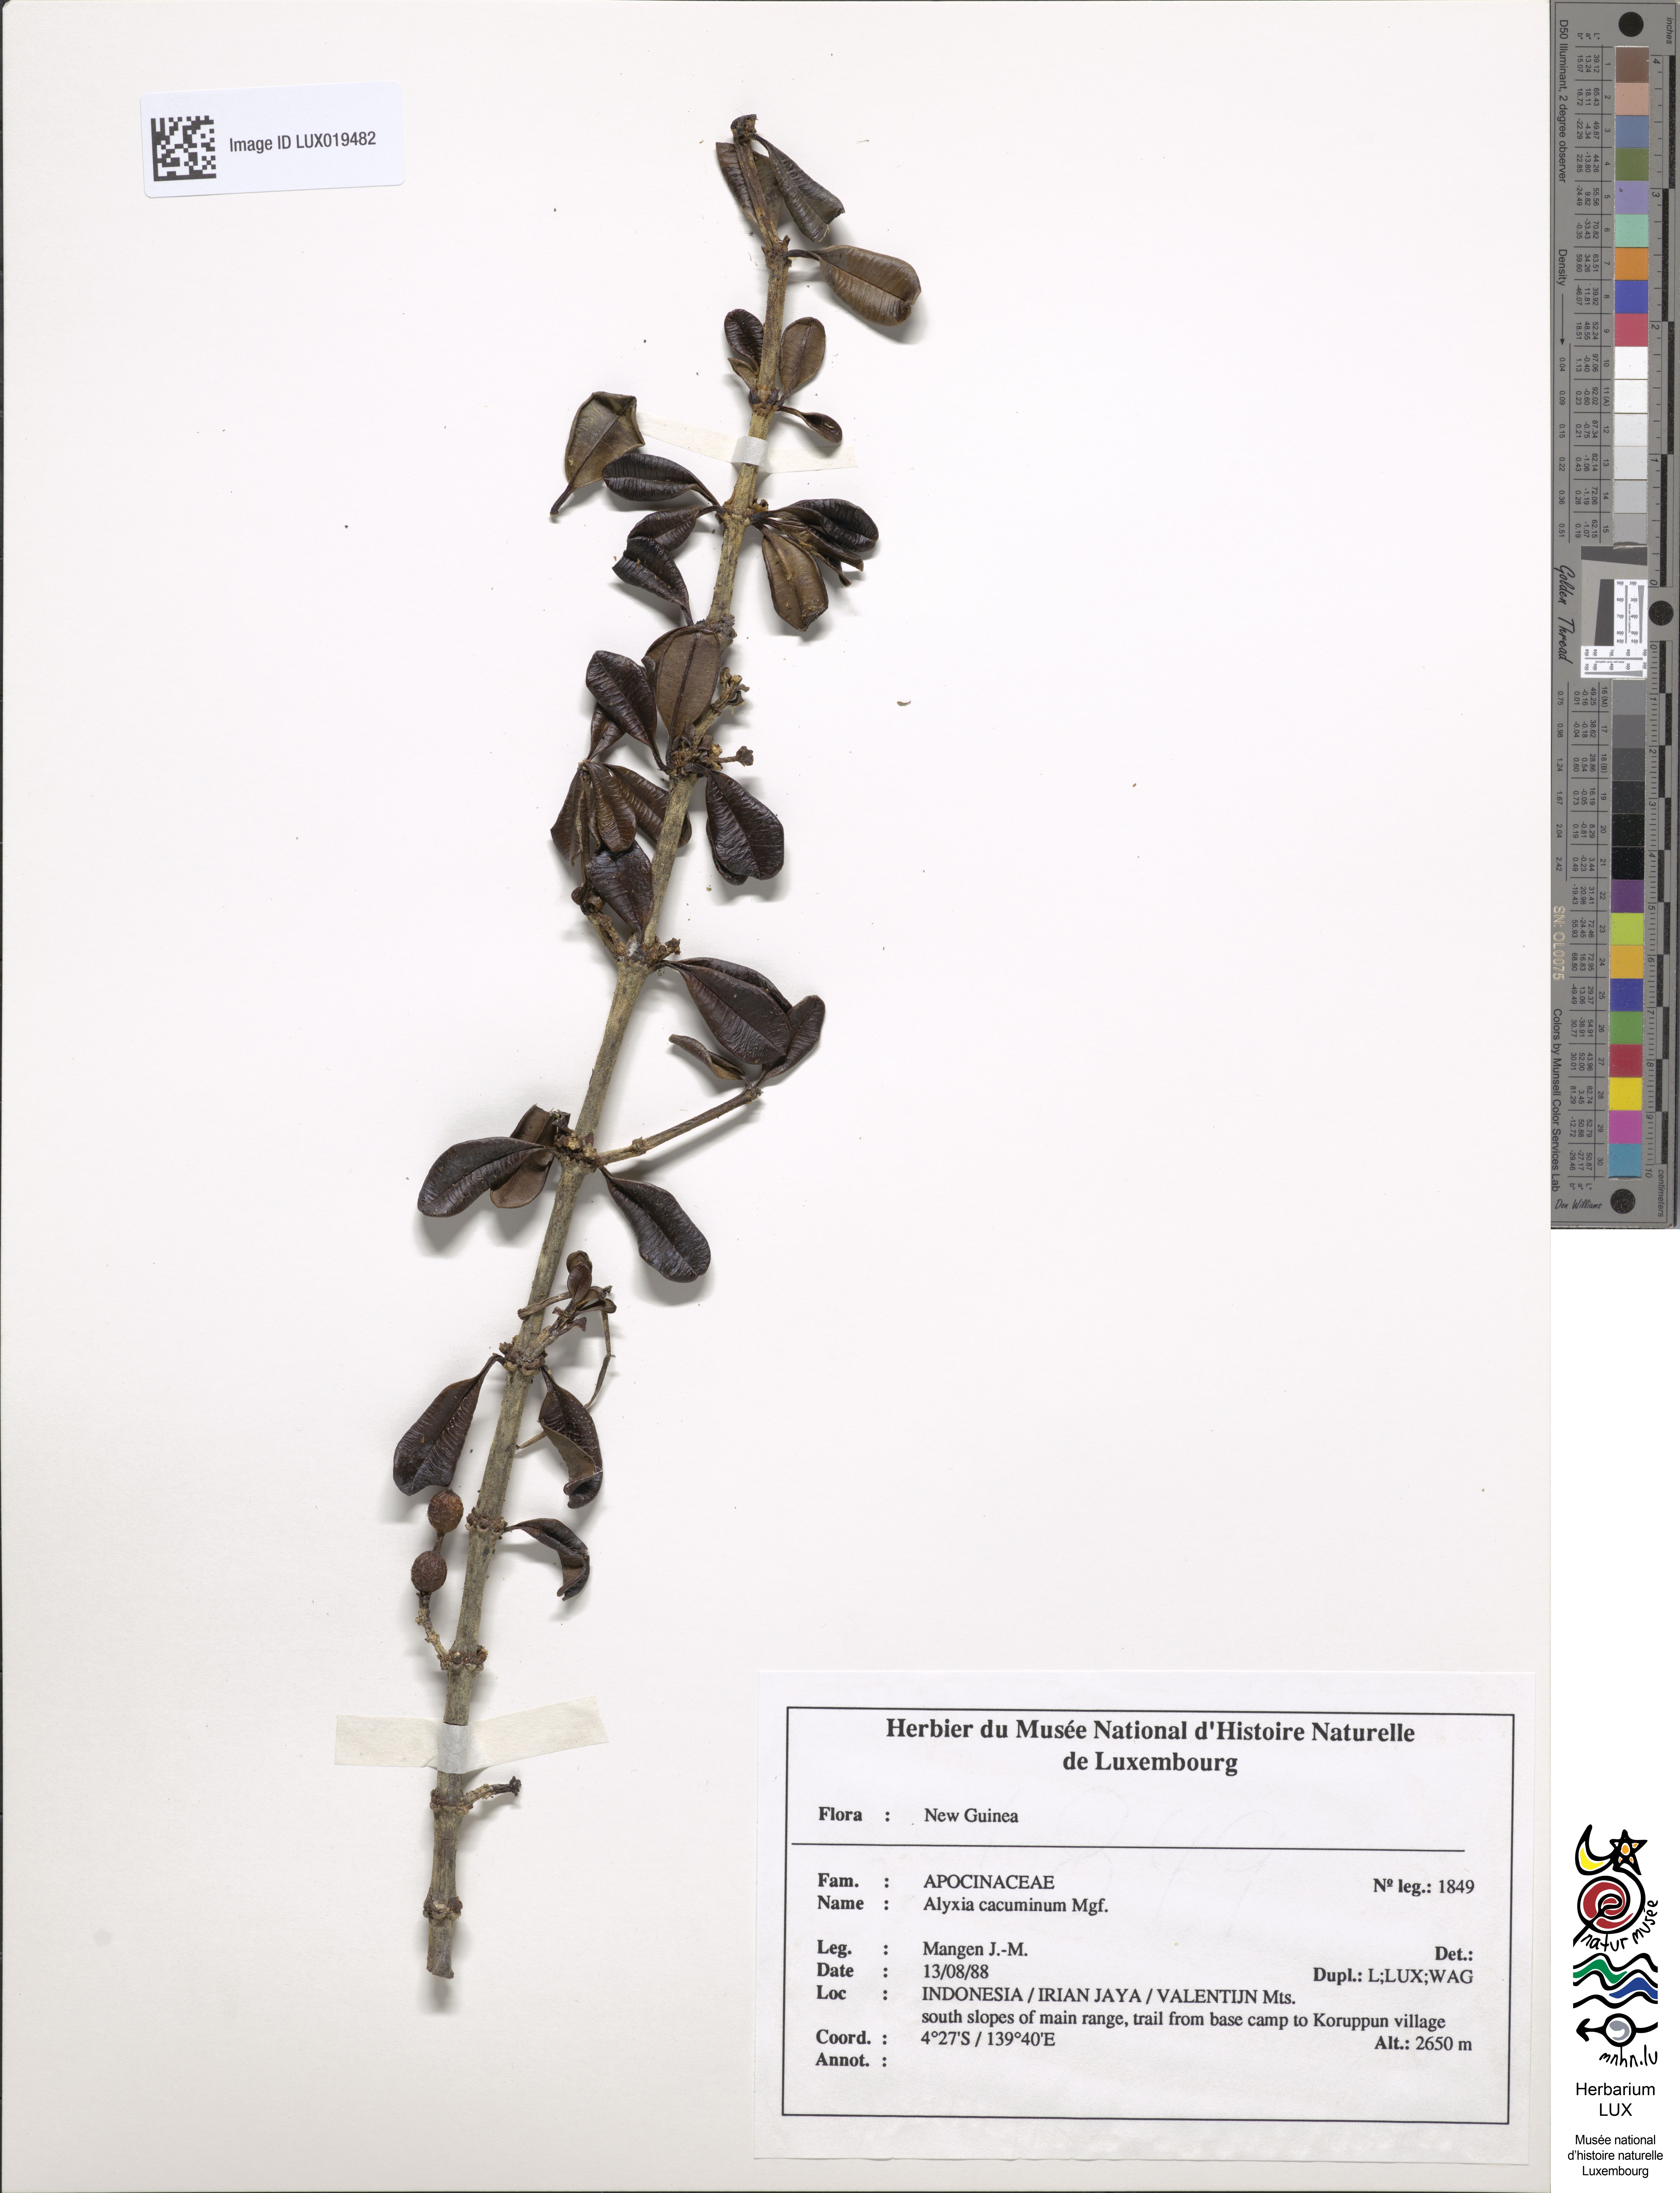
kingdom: Plantae
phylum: Tracheophyta
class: Magnoliopsida
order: Gentianales
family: Apocynaceae
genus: Alyxia
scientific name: Alyxia cacuminum
